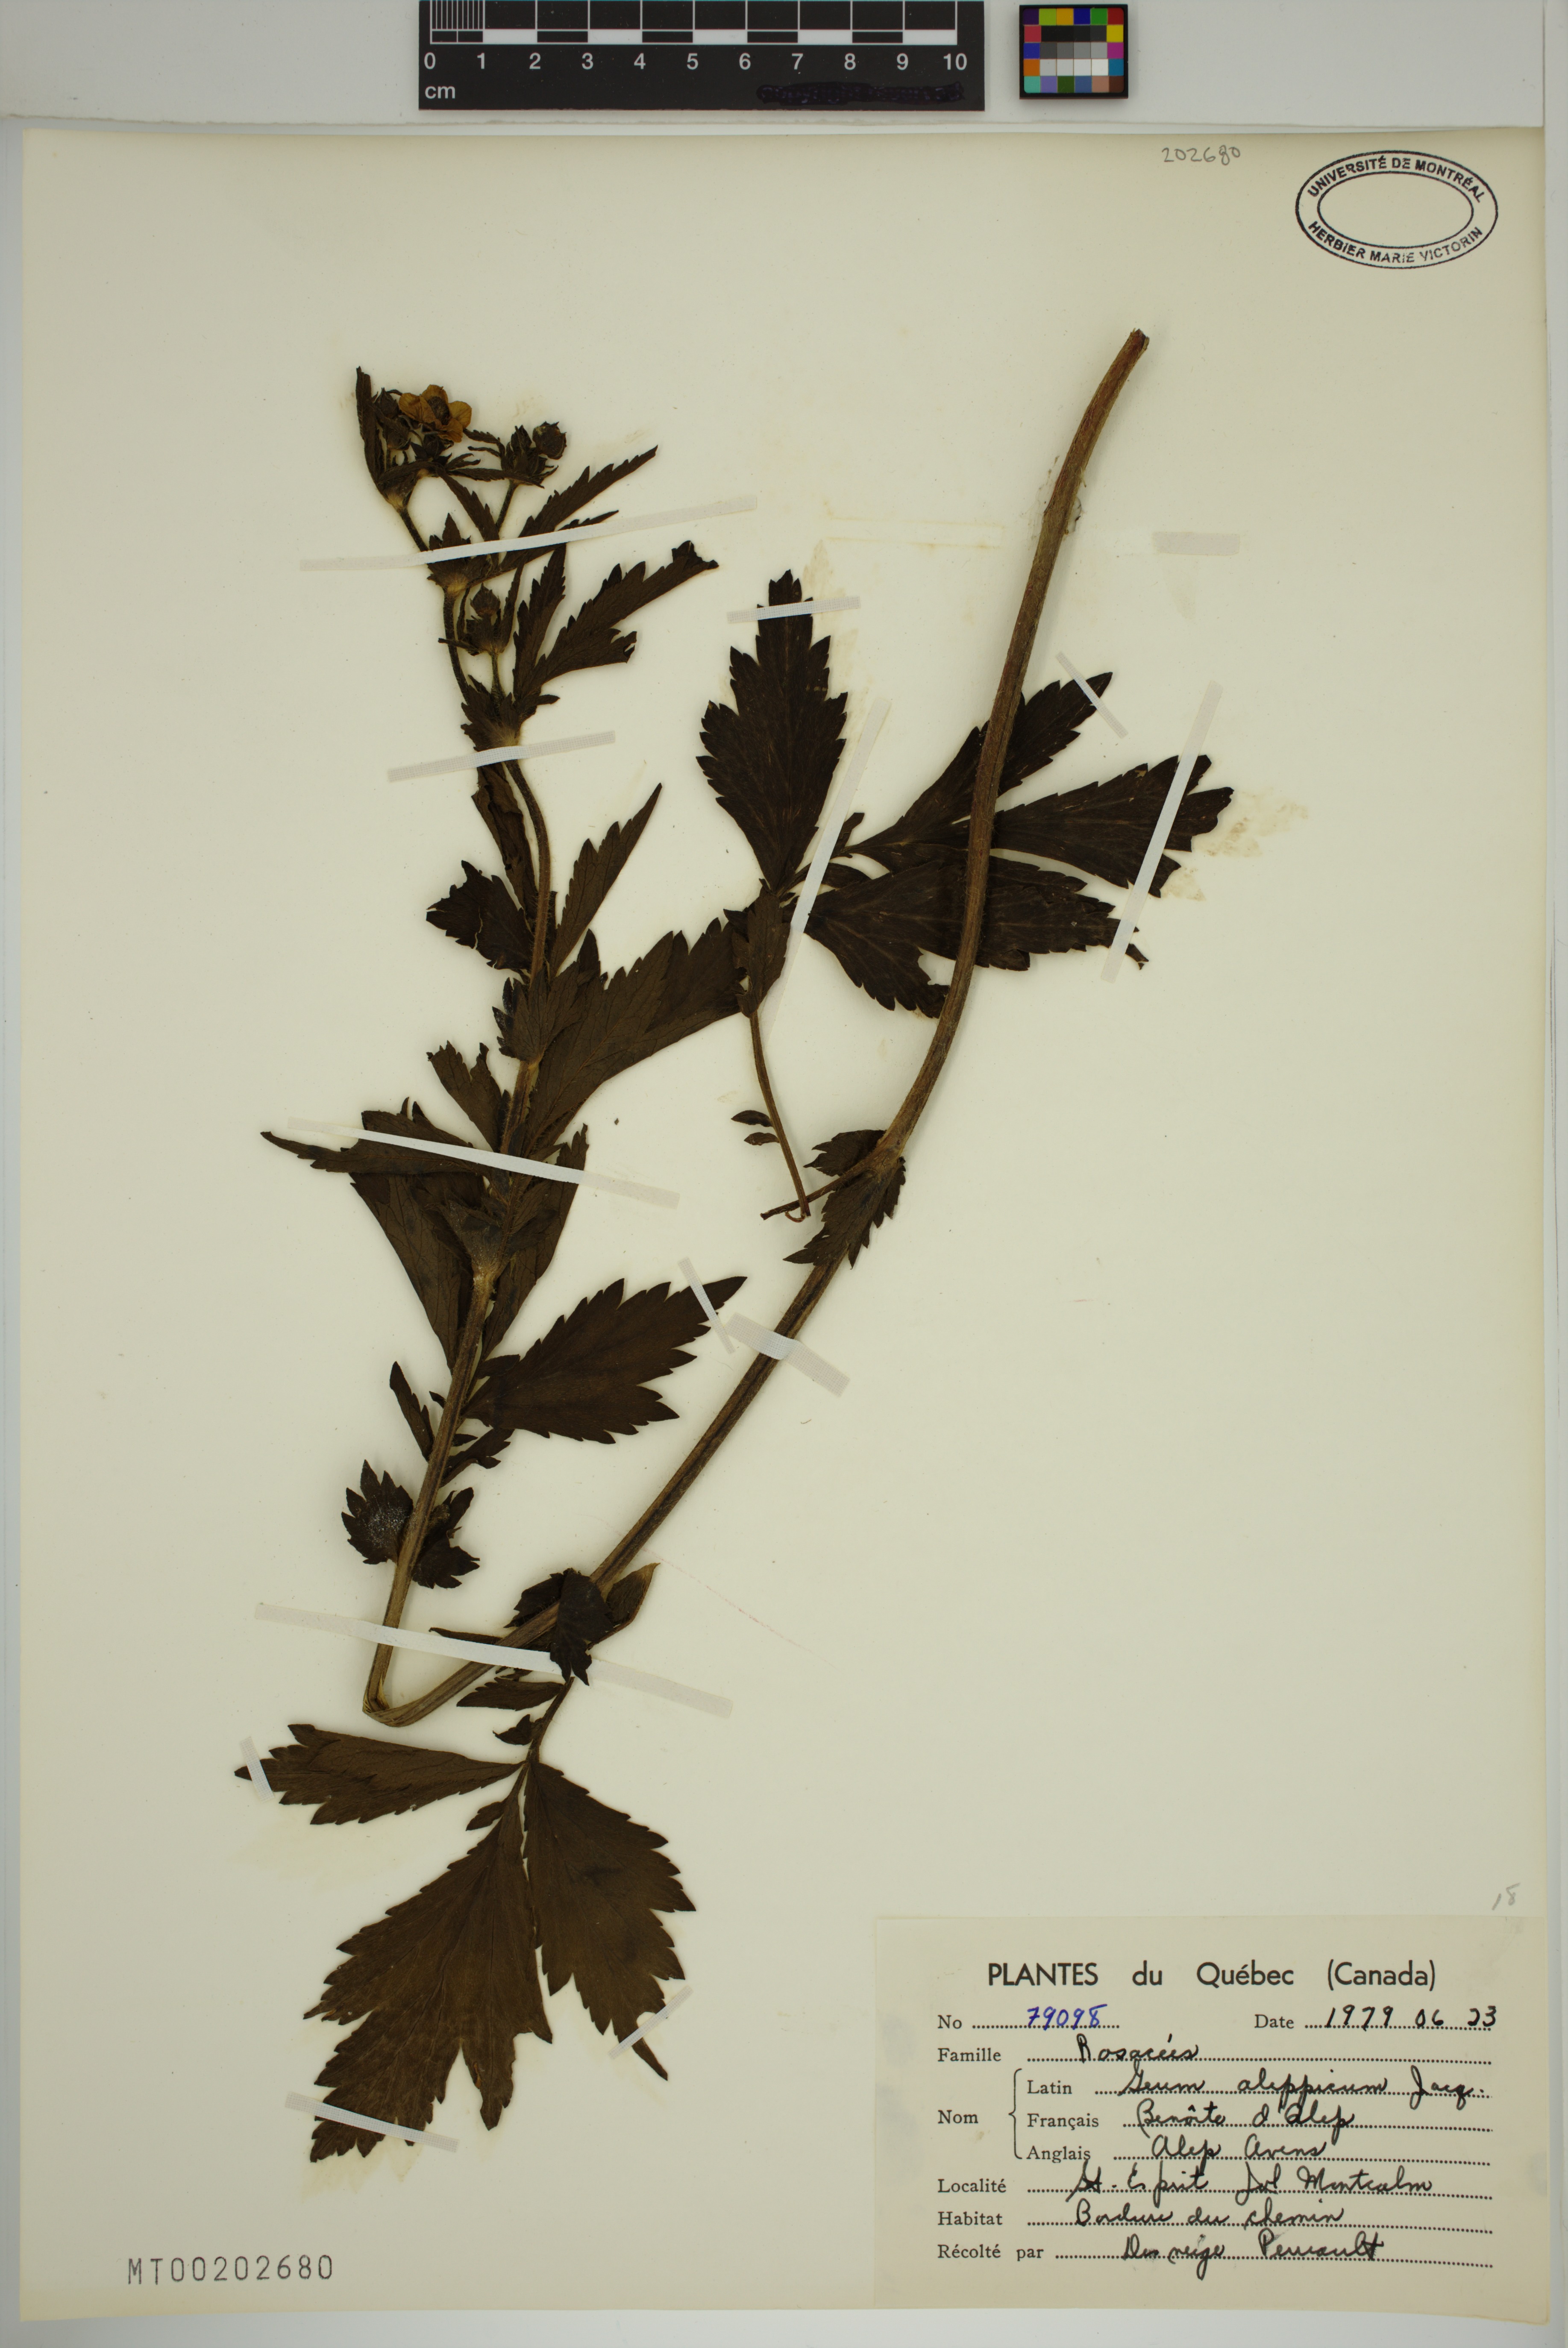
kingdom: Plantae
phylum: Tracheophyta
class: Magnoliopsida
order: Rosales
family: Rosaceae
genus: Geum
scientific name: Geum aleppicum
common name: Yellow avens
